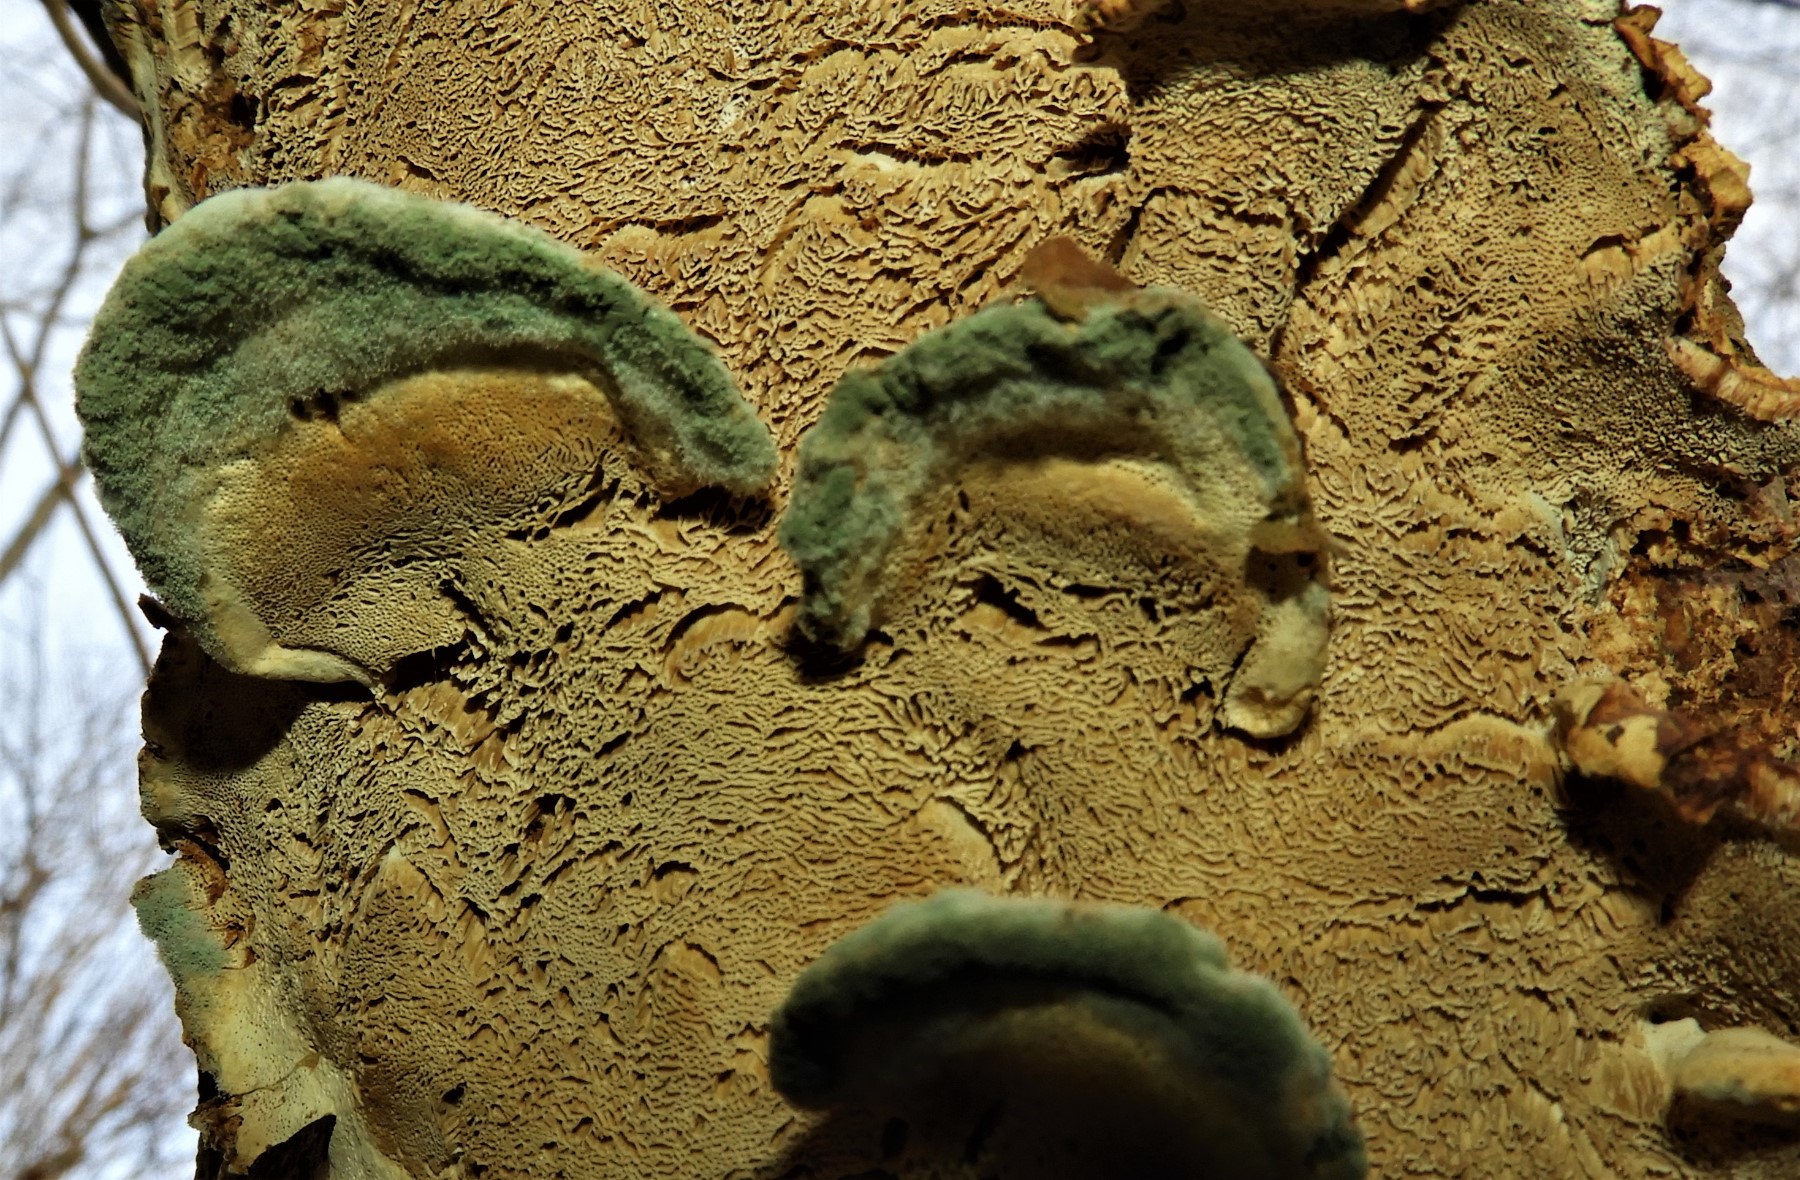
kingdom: Fungi
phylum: Basidiomycota
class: Agaricomycetes
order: Polyporales
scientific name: Polyporales
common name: poresvampordenen
